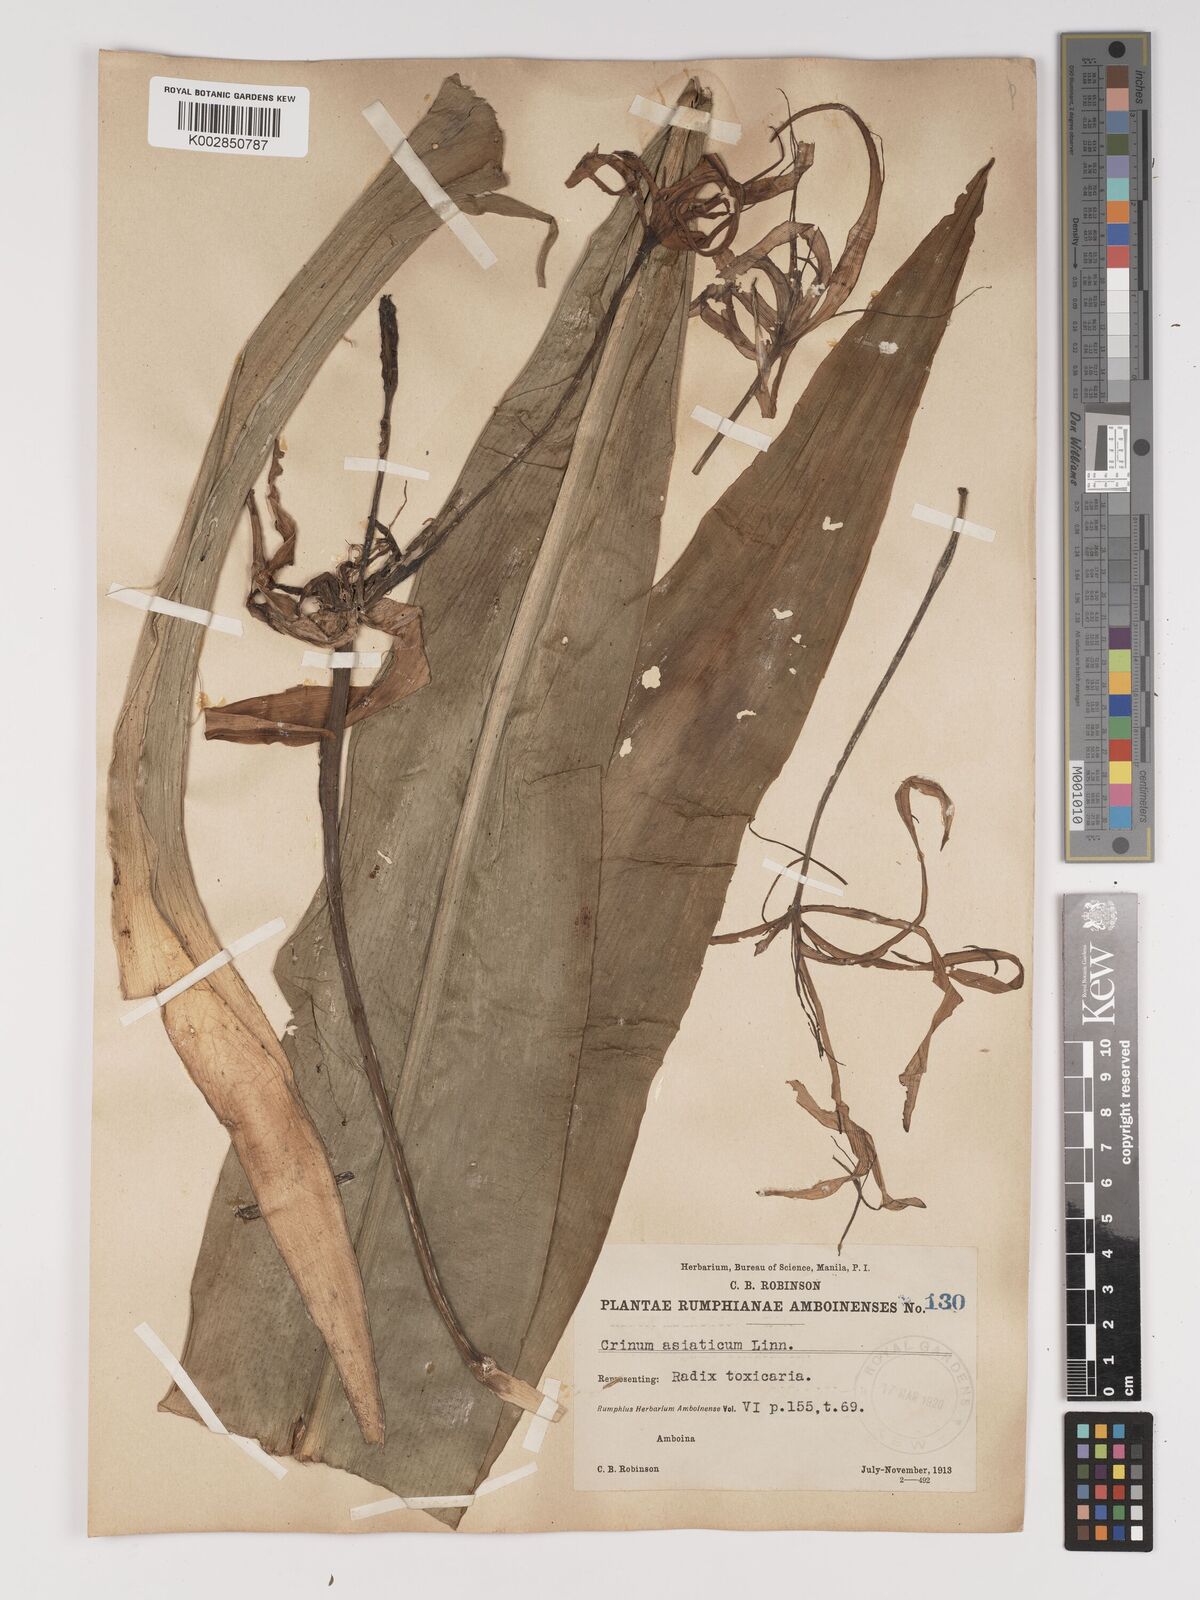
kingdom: Plantae
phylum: Tracheophyta
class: Liliopsida
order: Asparagales
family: Amaryllidaceae
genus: Crinum
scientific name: Crinum asiaticum
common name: Poisonbulb
